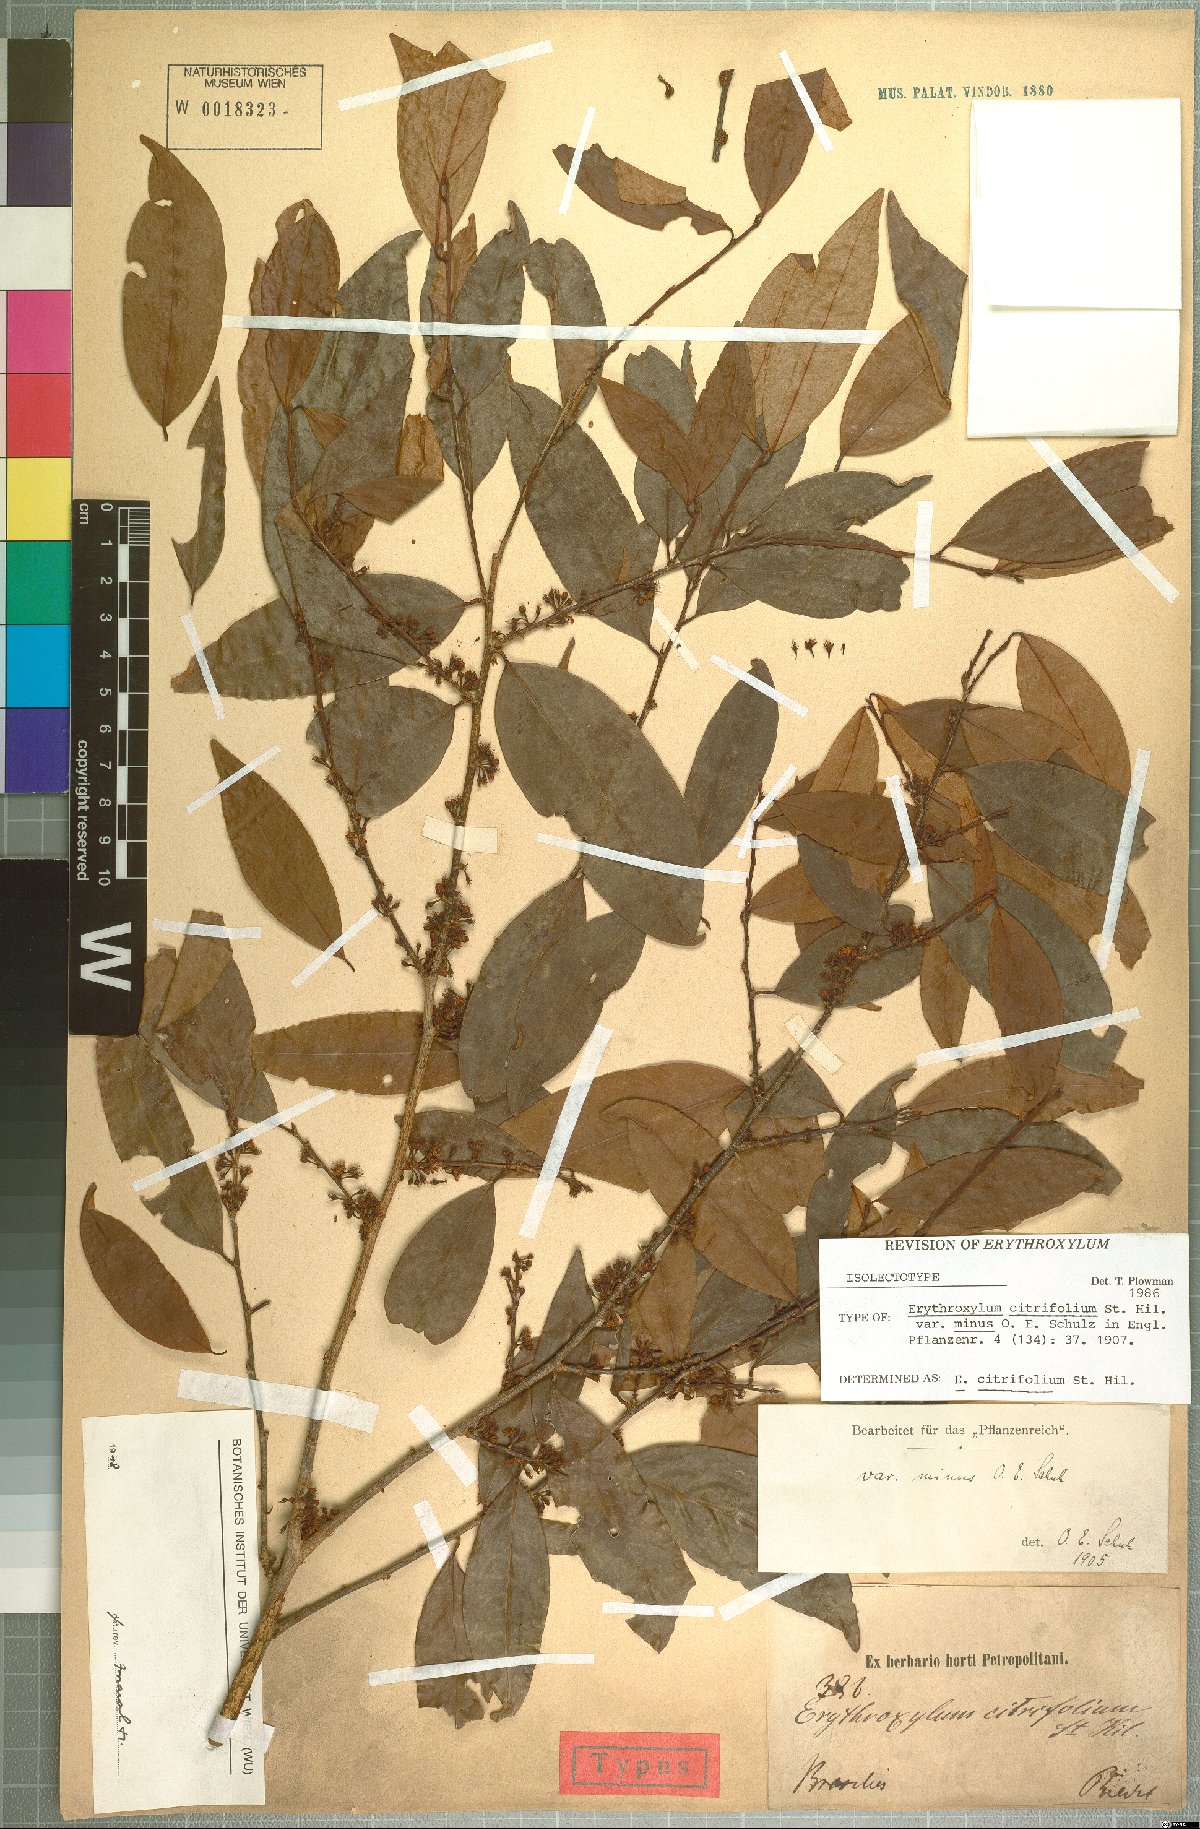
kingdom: Plantae
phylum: Tracheophyta
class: Magnoliopsida
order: Malpighiales
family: Erythroxylaceae
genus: Erythroxylum
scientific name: Erythroxylum citrifolium
